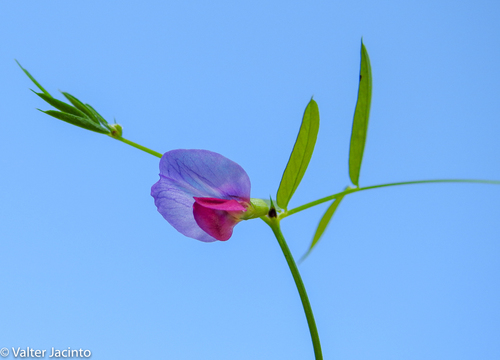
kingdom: Plantae
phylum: Tracheophyta
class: Magnoliopsida
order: Fabales
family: Fabaceae
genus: Vicia
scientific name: Vicia peregrina
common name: Broad-pod vetch
